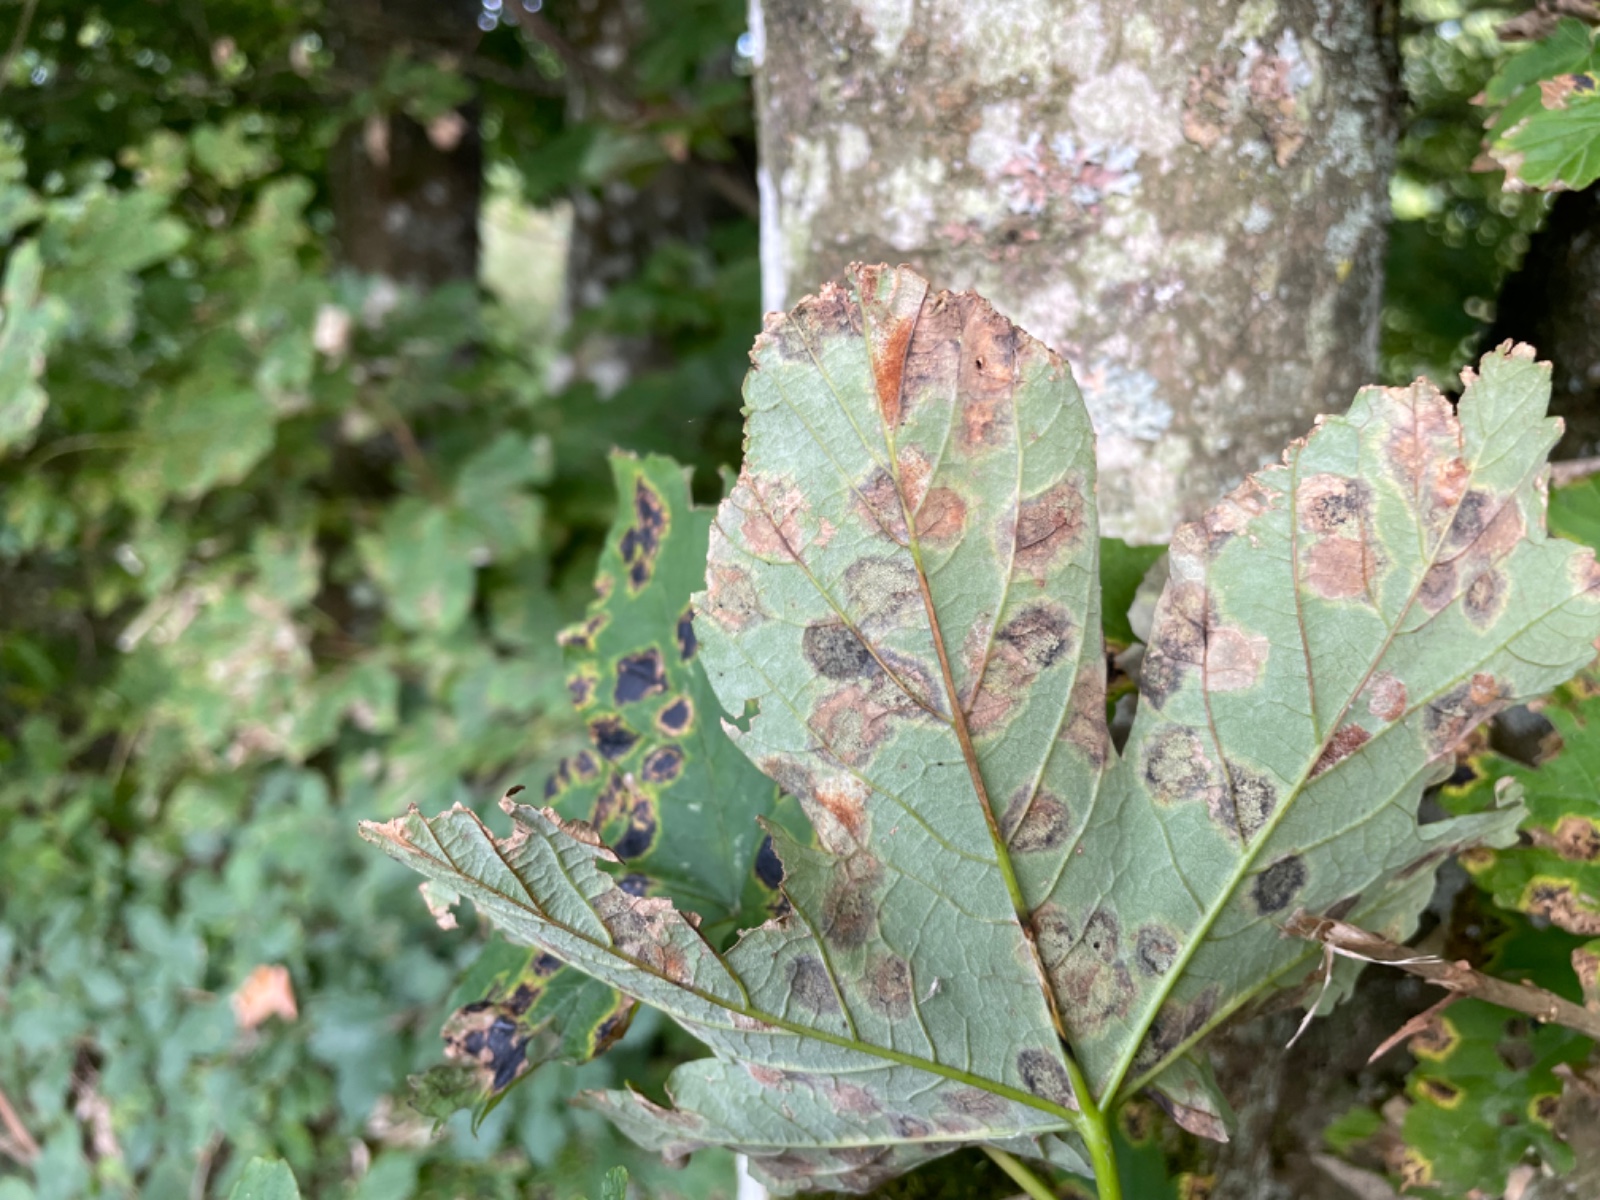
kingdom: Fungi
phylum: Ascomycota
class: Leotiomycetes
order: Rhytismatales
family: Rhytismataceae
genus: Rhytisma
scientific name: Rhytisma acerinum
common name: ahorn-rynkeplet
